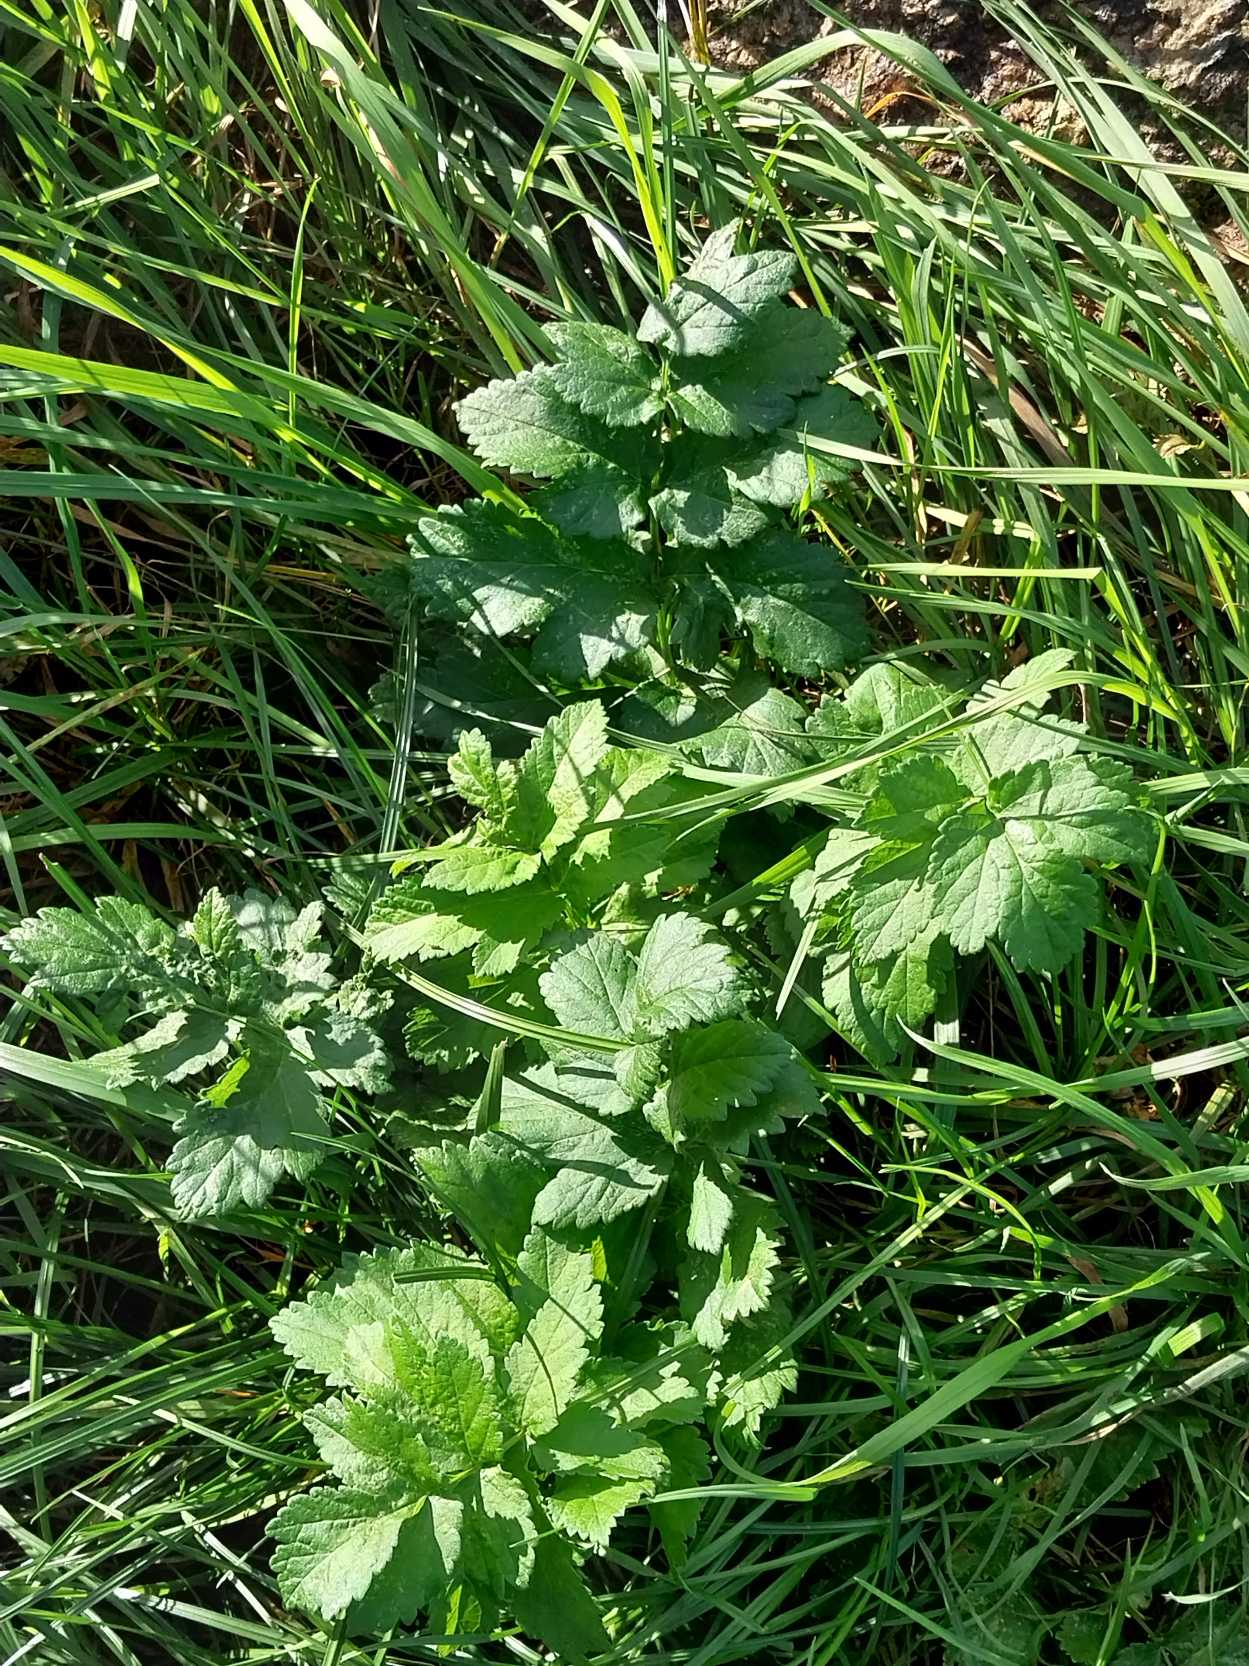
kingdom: Plantae
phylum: Tracheophyta
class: Magnoliopsida
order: Apiales
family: Apiaceae
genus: Pastinaca
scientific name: Pastinaca sativa
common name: Pastinak
